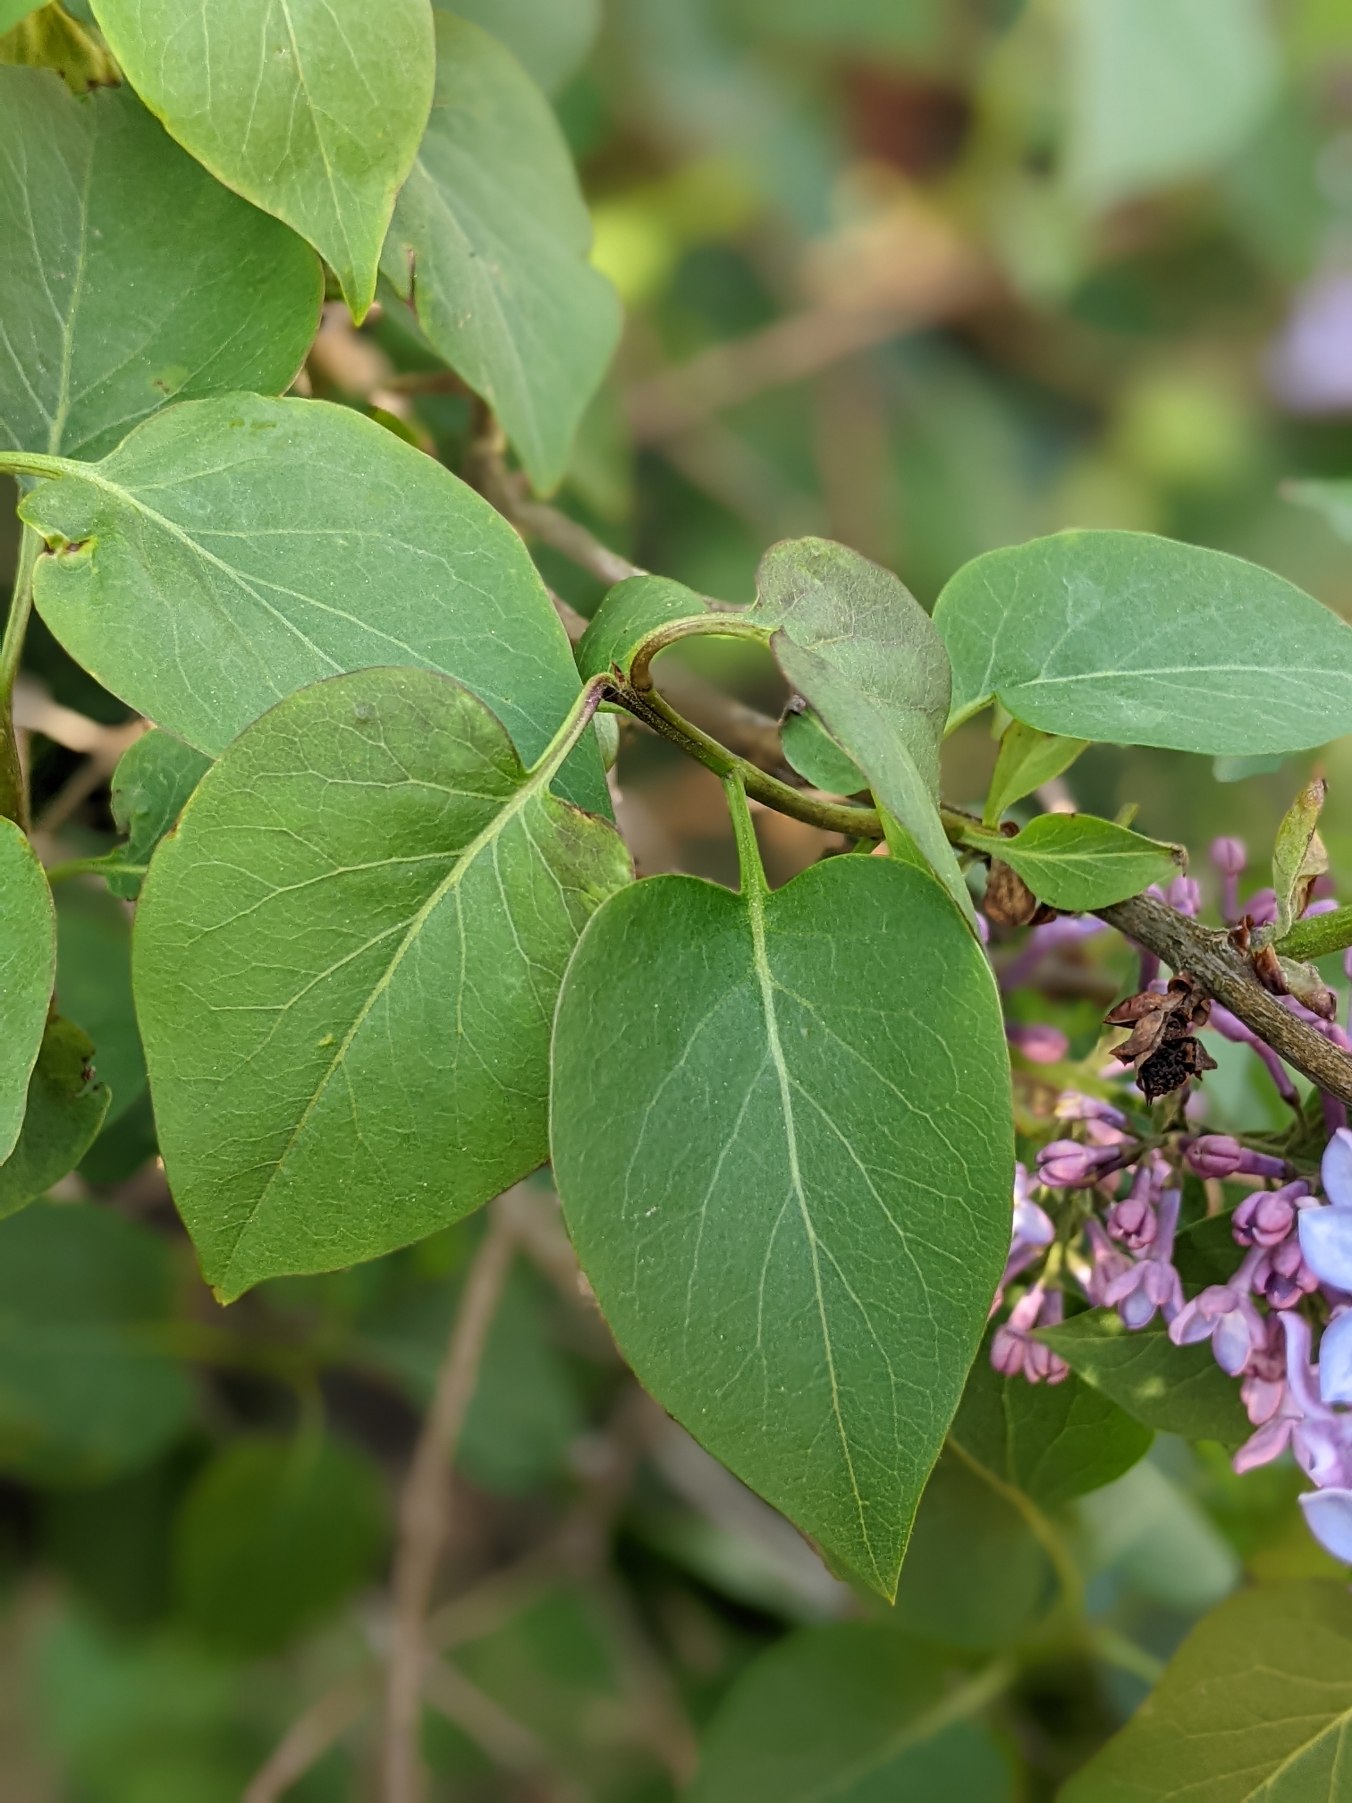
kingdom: Plantae
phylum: Tracheophyta
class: Magnoliopsida
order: Lamiales
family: Oleaceae
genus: Syringa
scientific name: Syringa vulgaris
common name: Syren
